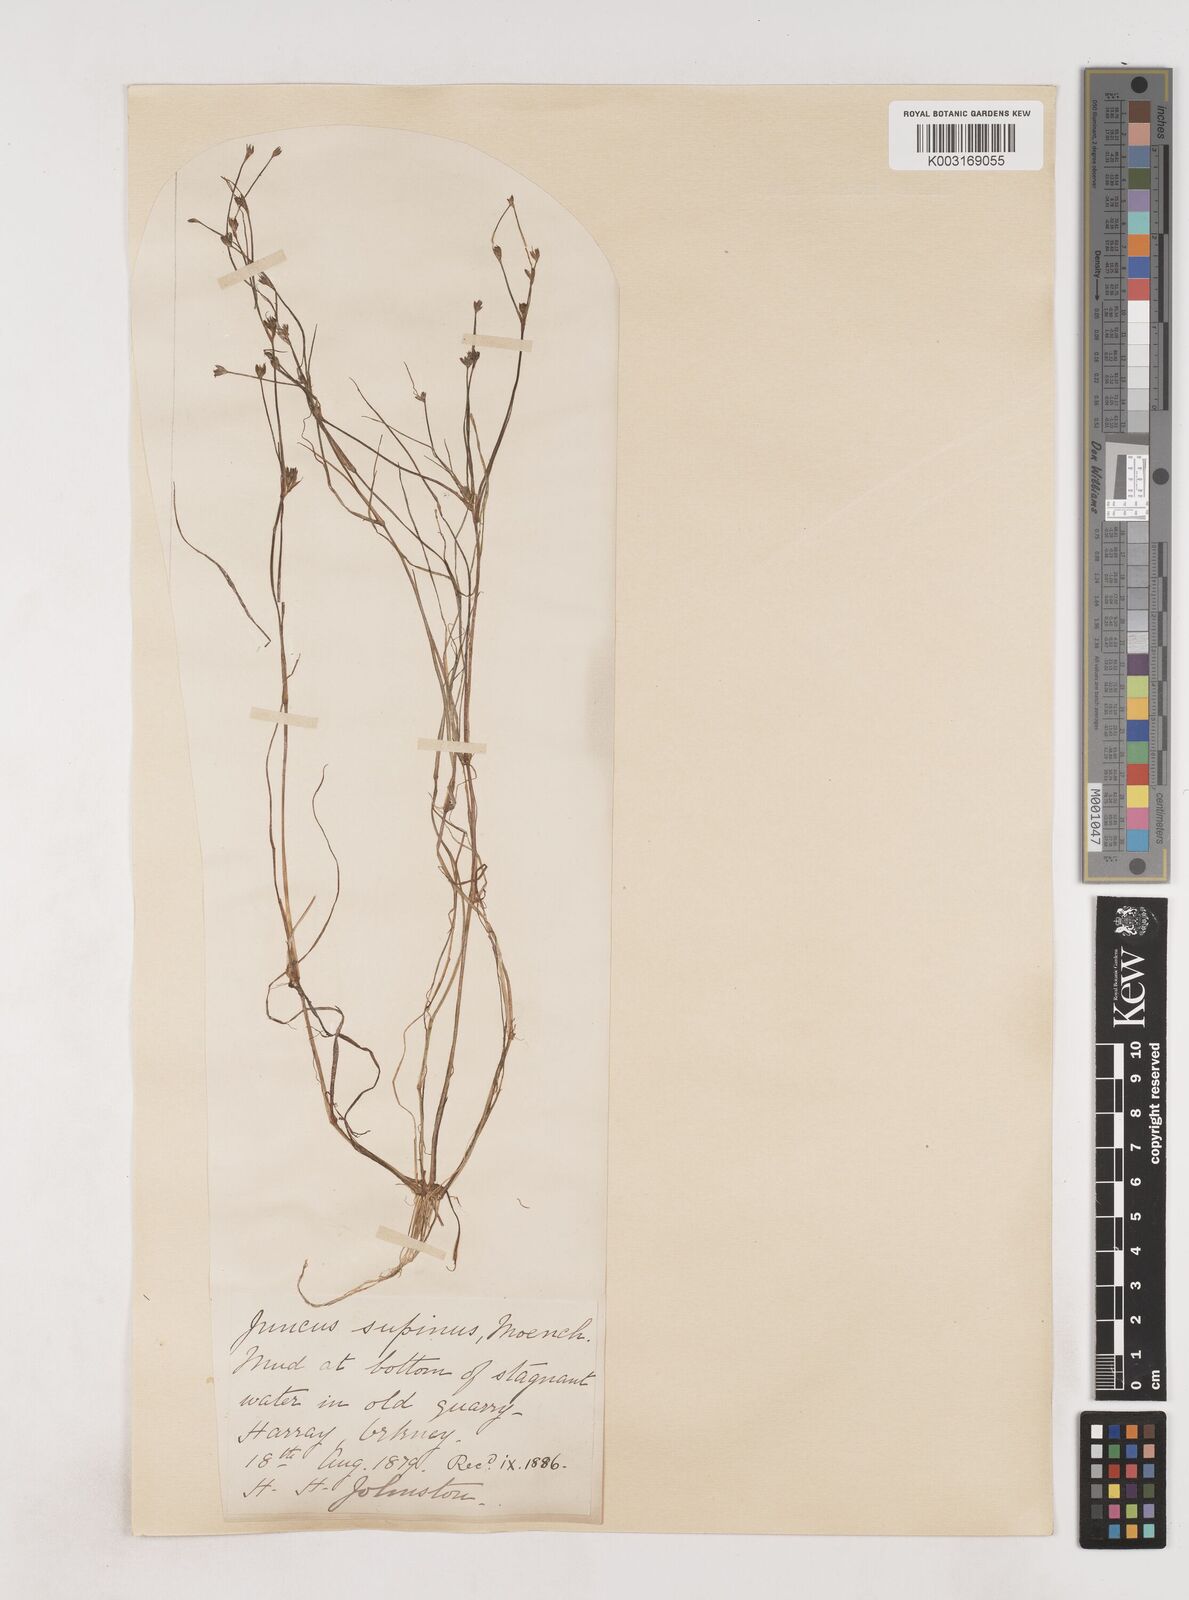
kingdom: Plantae
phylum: Tracheophyta
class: Liliopsida
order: Poales
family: Juncaceae
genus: Juncus
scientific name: Juncus bulbosus
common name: Bulbous rush
